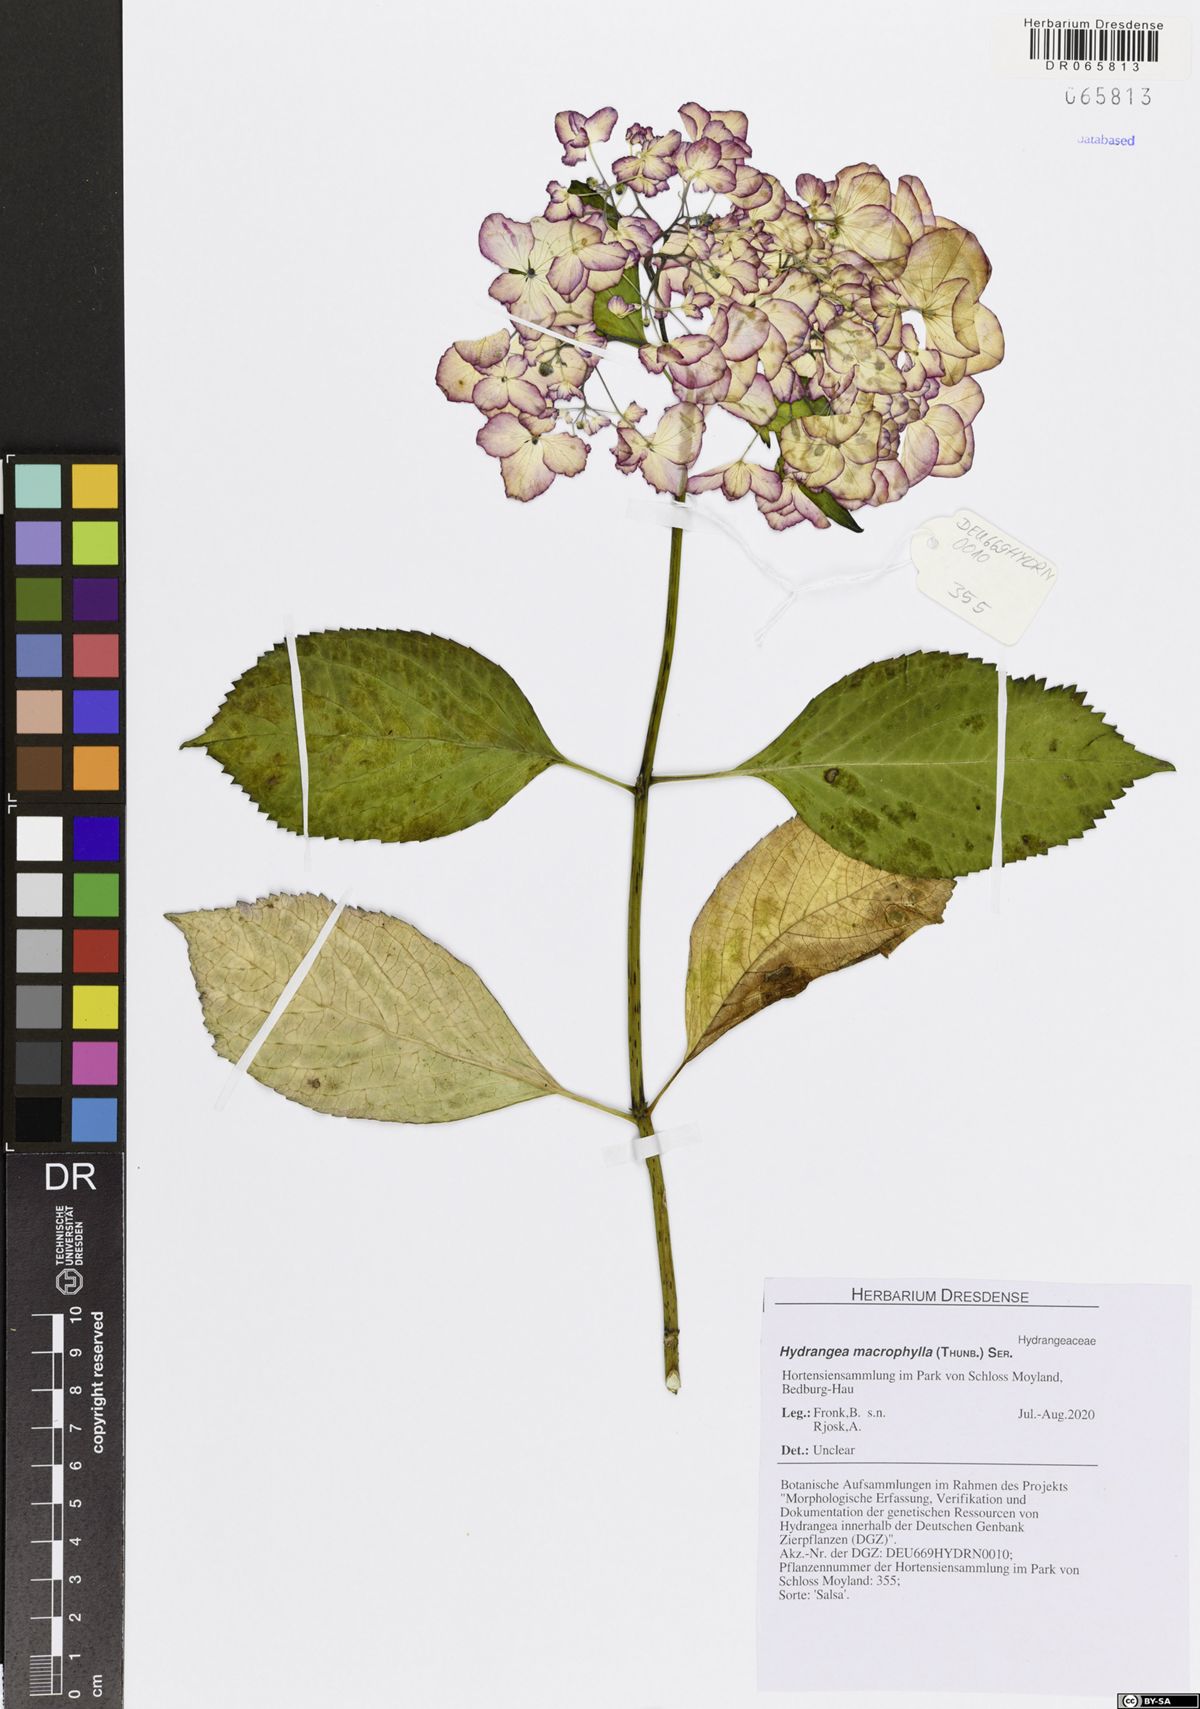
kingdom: Plantae
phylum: Tracheophyta
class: Magnoliopsida
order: Cornales
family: Hydrangeaceae
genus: Hydrangea
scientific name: Hydrangea macrophylla
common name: Hydrangea
